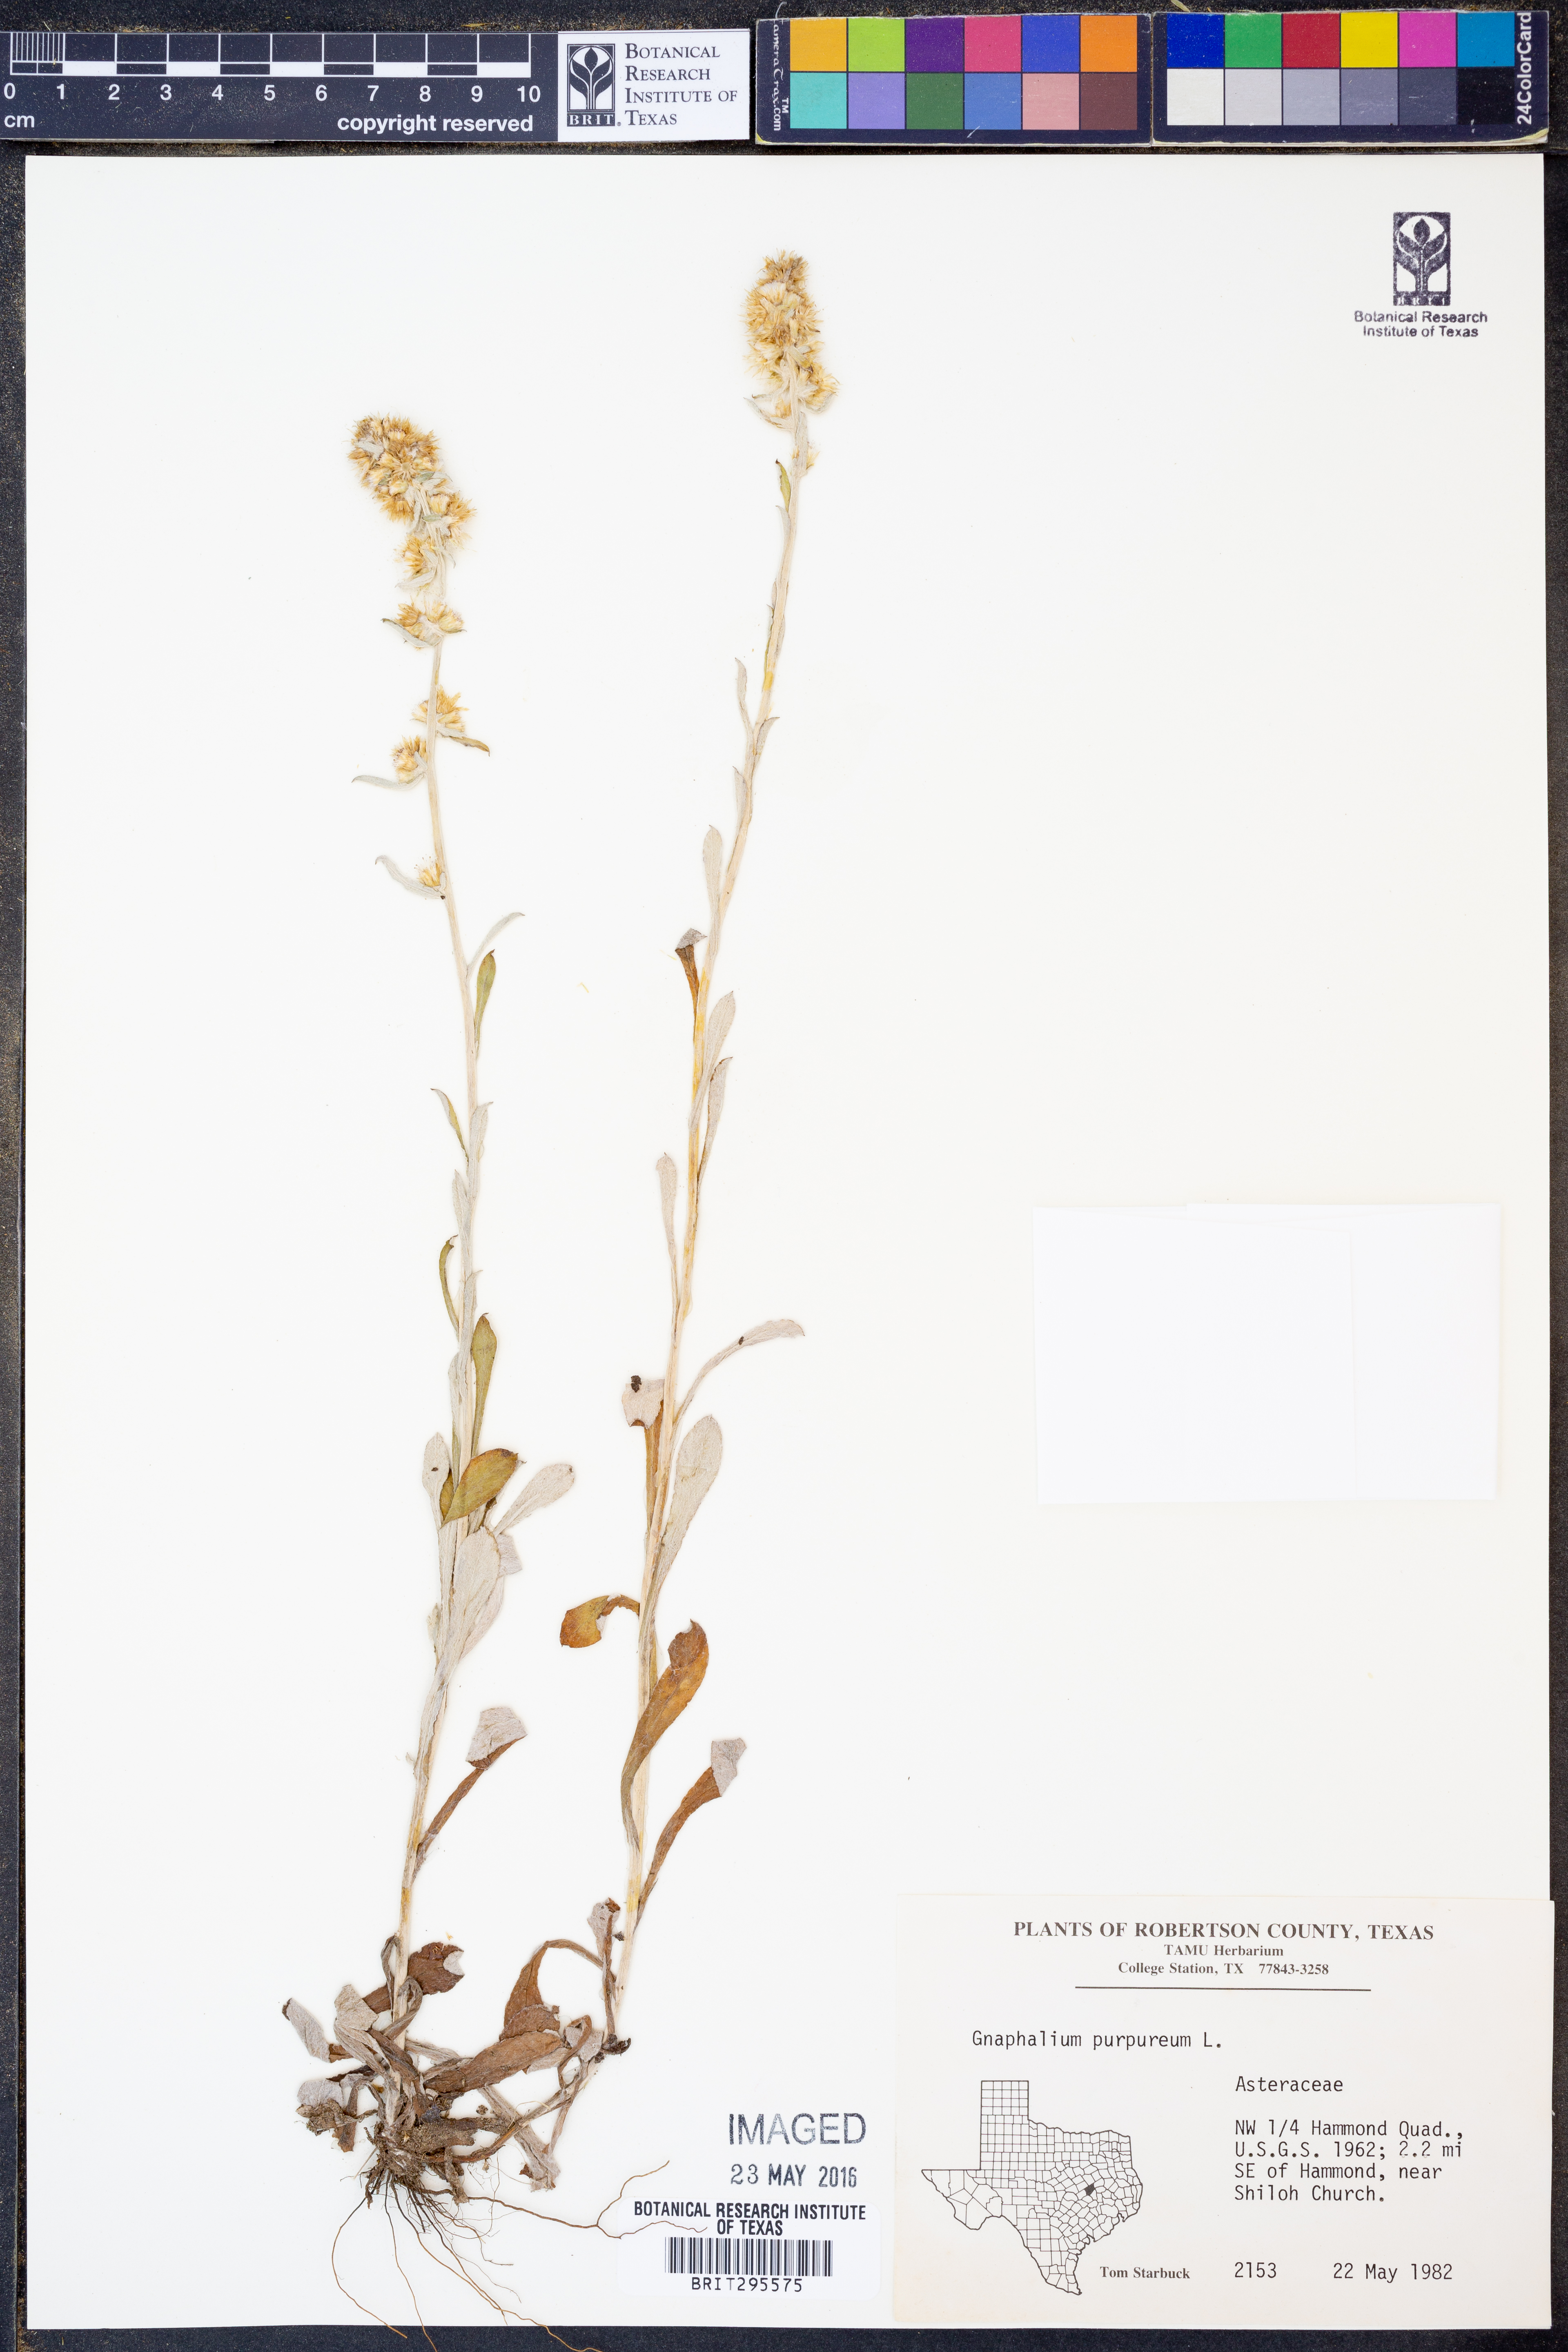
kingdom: Plantae
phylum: Tracheophyta
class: Magnoliopsida
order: Asterales
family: Asteraceae
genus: Gamochaeta
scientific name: Gamochaeta purpurea
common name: Purple cudweed
